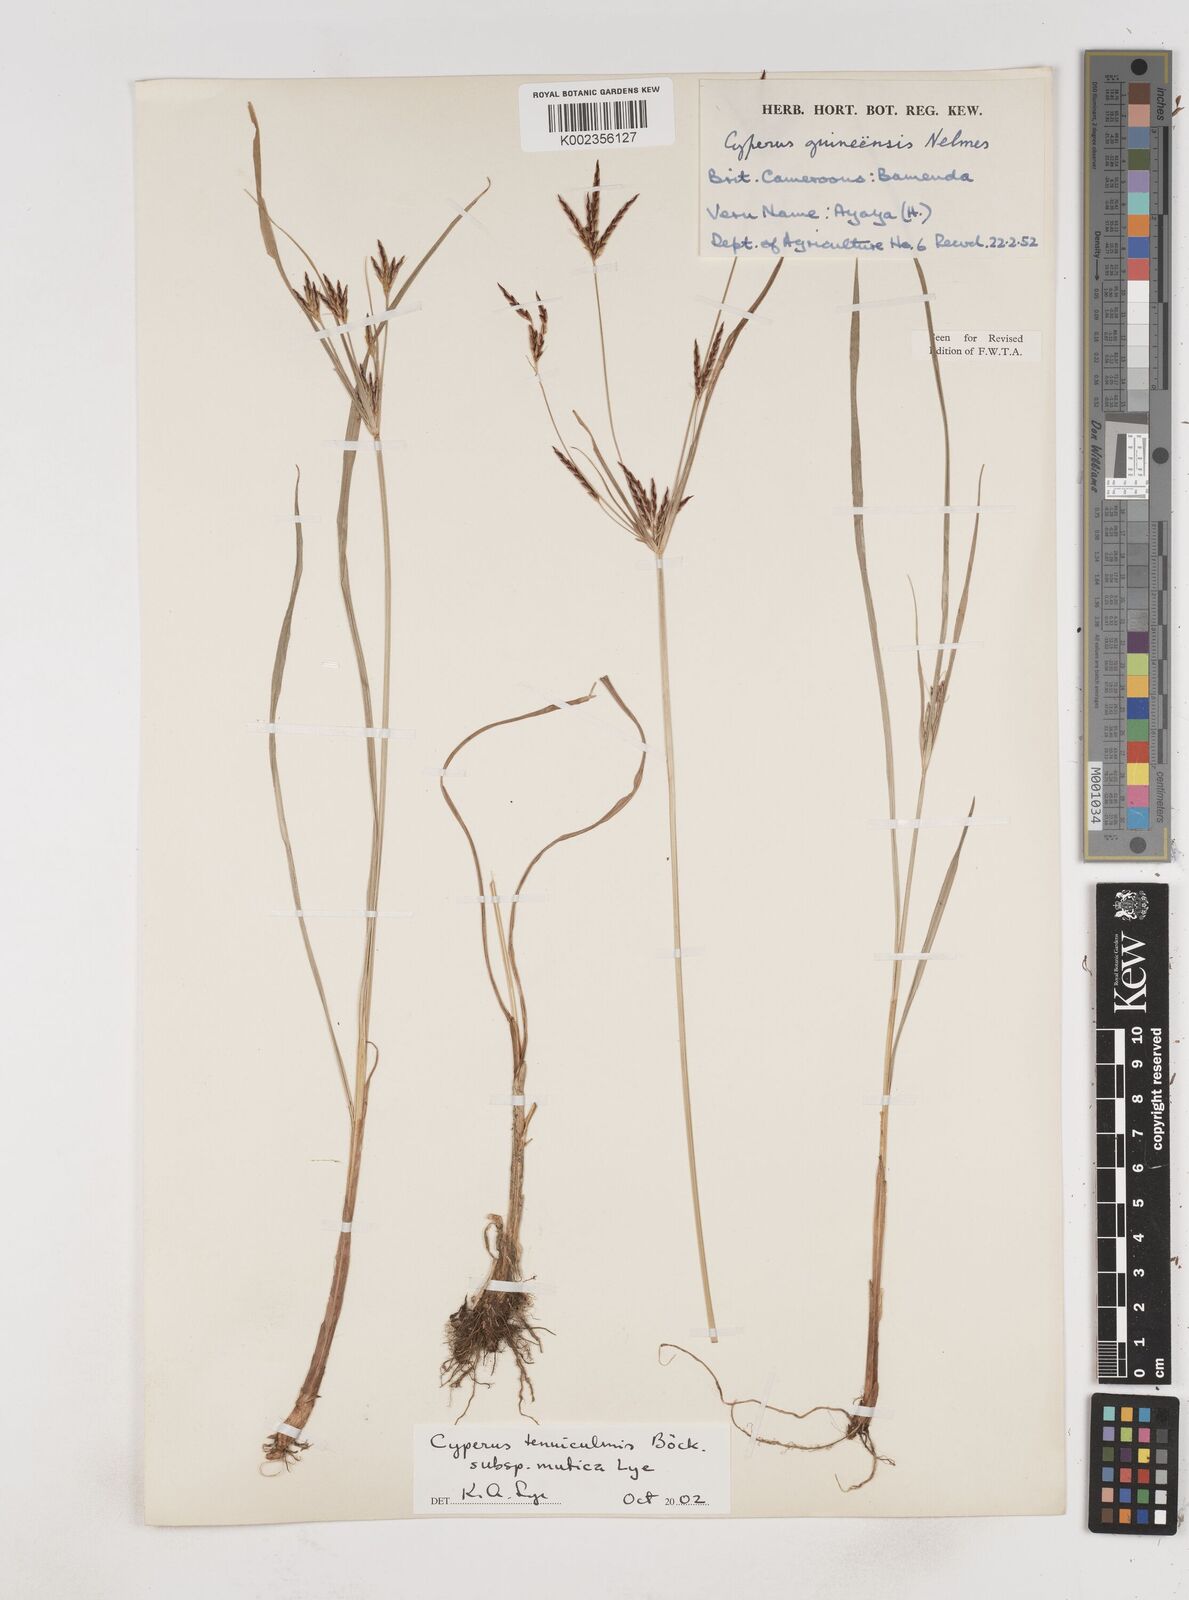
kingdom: Plantae
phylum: Tracheophyta
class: Liliopsida
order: Poales
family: Cyperaceae
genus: Cyperus
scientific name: Cyperus tenuiculmis
